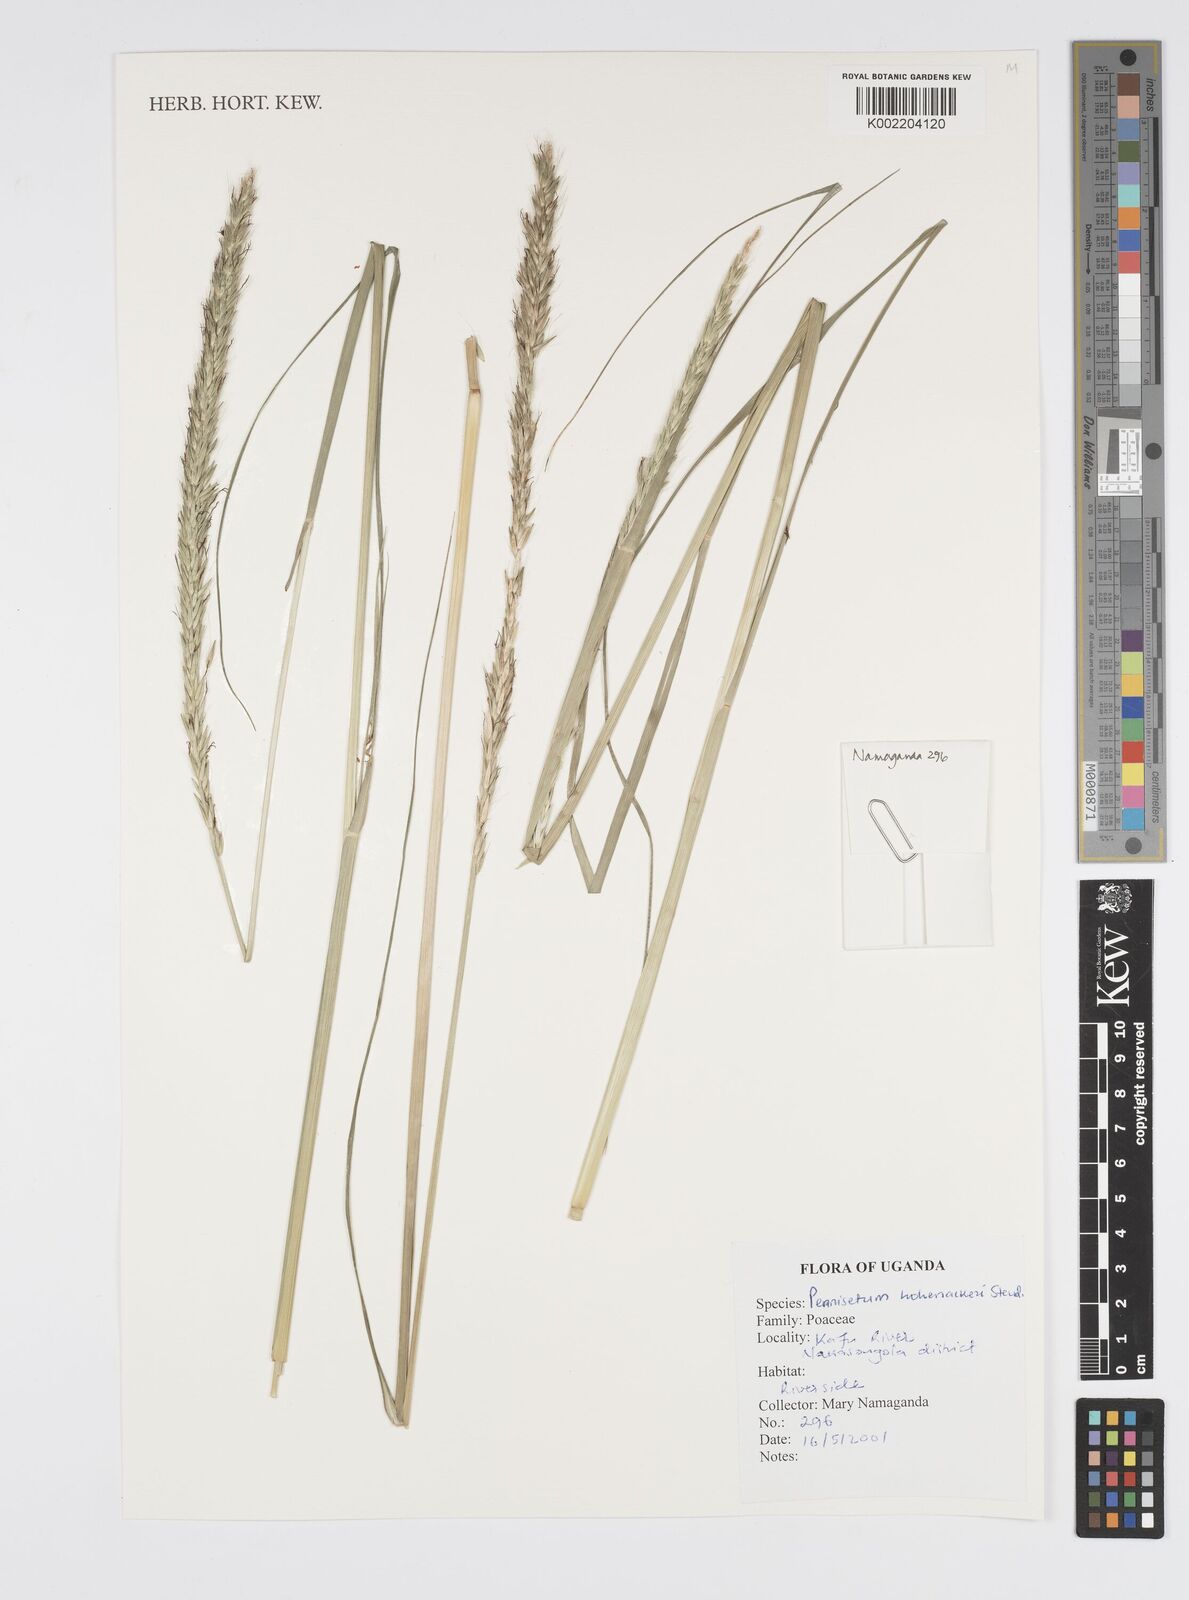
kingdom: Plantae
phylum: Tracheophyta
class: Liliopsida
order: Poales
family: Poaceae
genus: Cenchrus
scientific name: Cenchrus hohenackeri
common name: Moya grass
